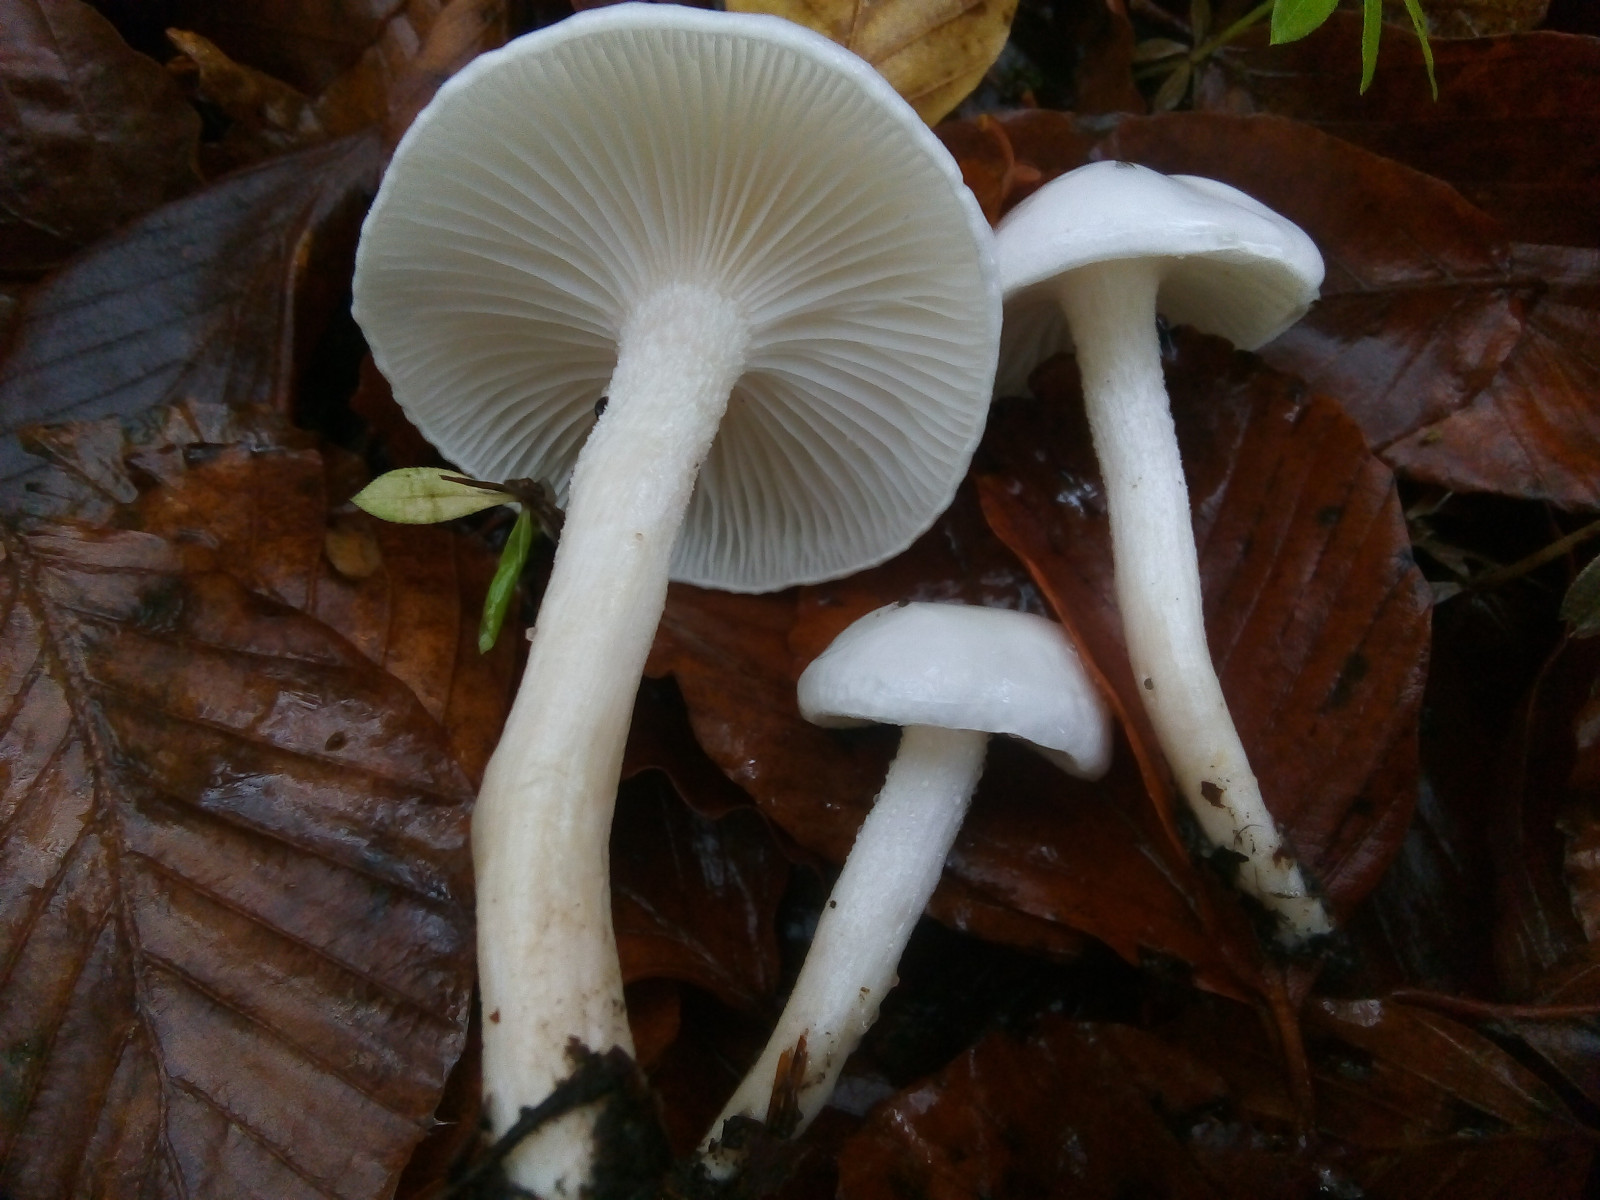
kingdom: Fungi
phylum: Basidiomycota
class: Agaricomycetes
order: Agaricales
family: Hygrophoraceae
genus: Hygrophorus
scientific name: Hygrophorus eburneus
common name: elfenbens-sneglehat
